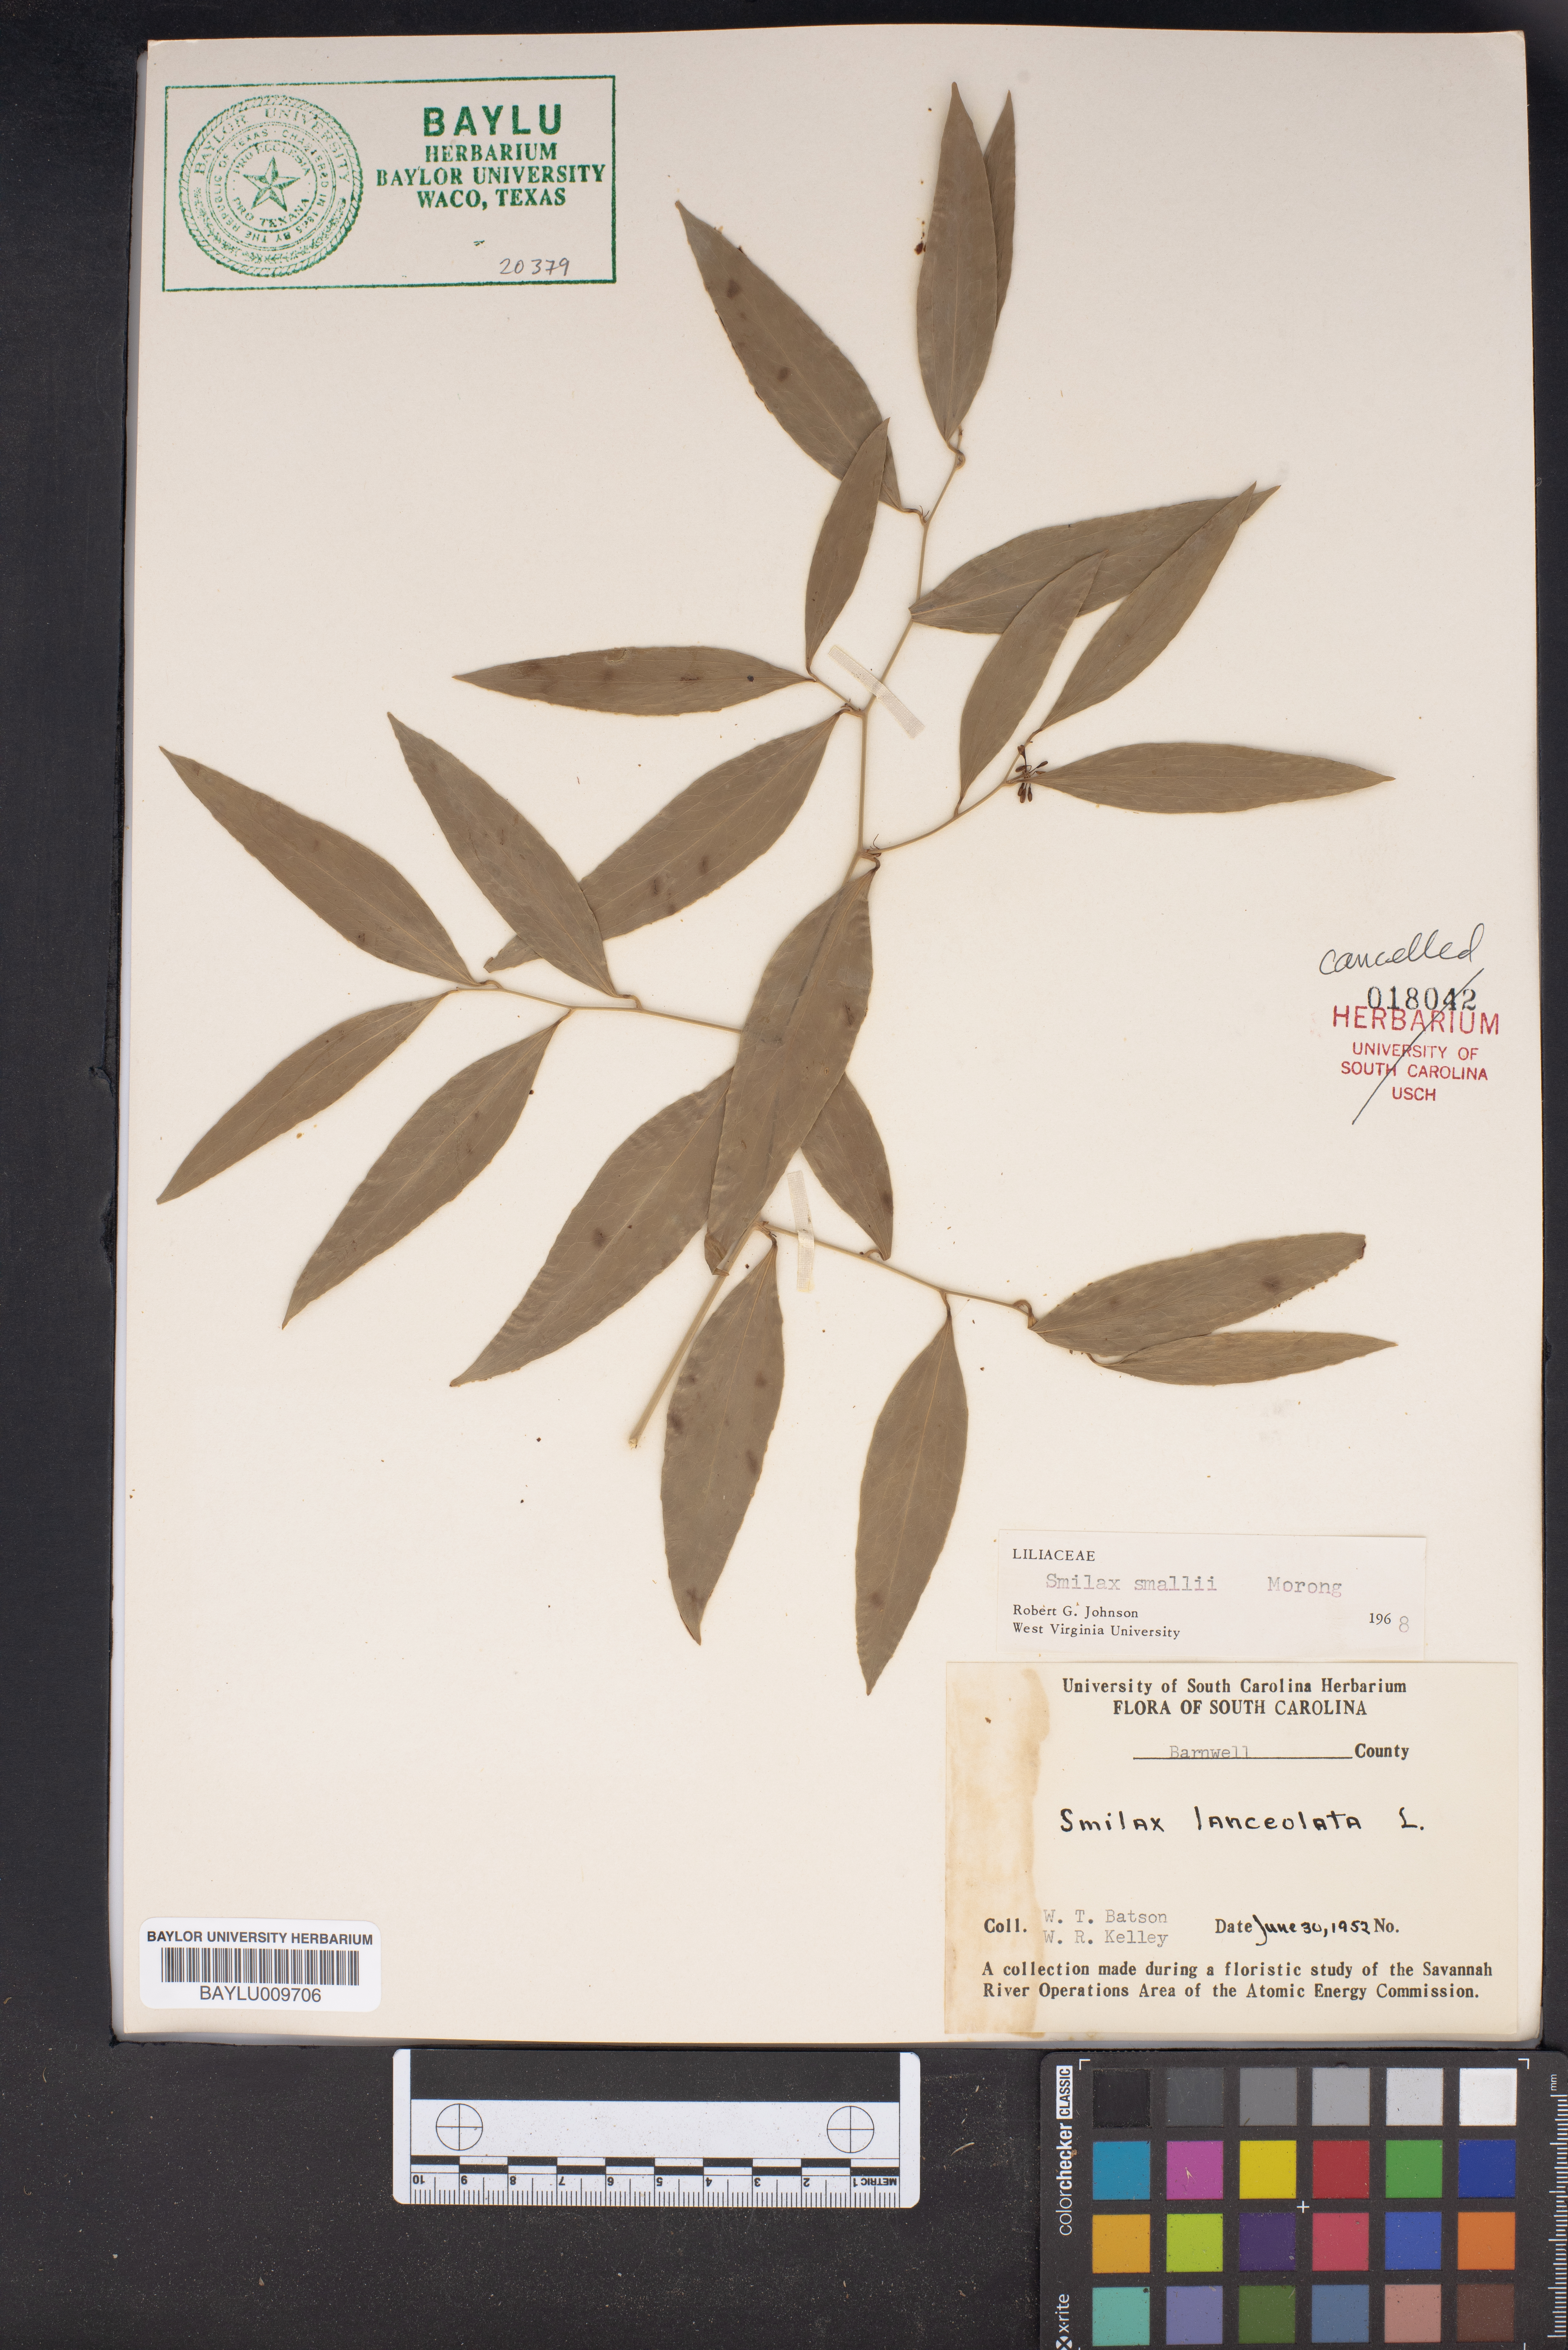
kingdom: Plantae
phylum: Tracheophyta
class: Liliopsida
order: Liliales
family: Smilacaceae
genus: Smilax
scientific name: Smilax laurifolia
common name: Bamboovine
